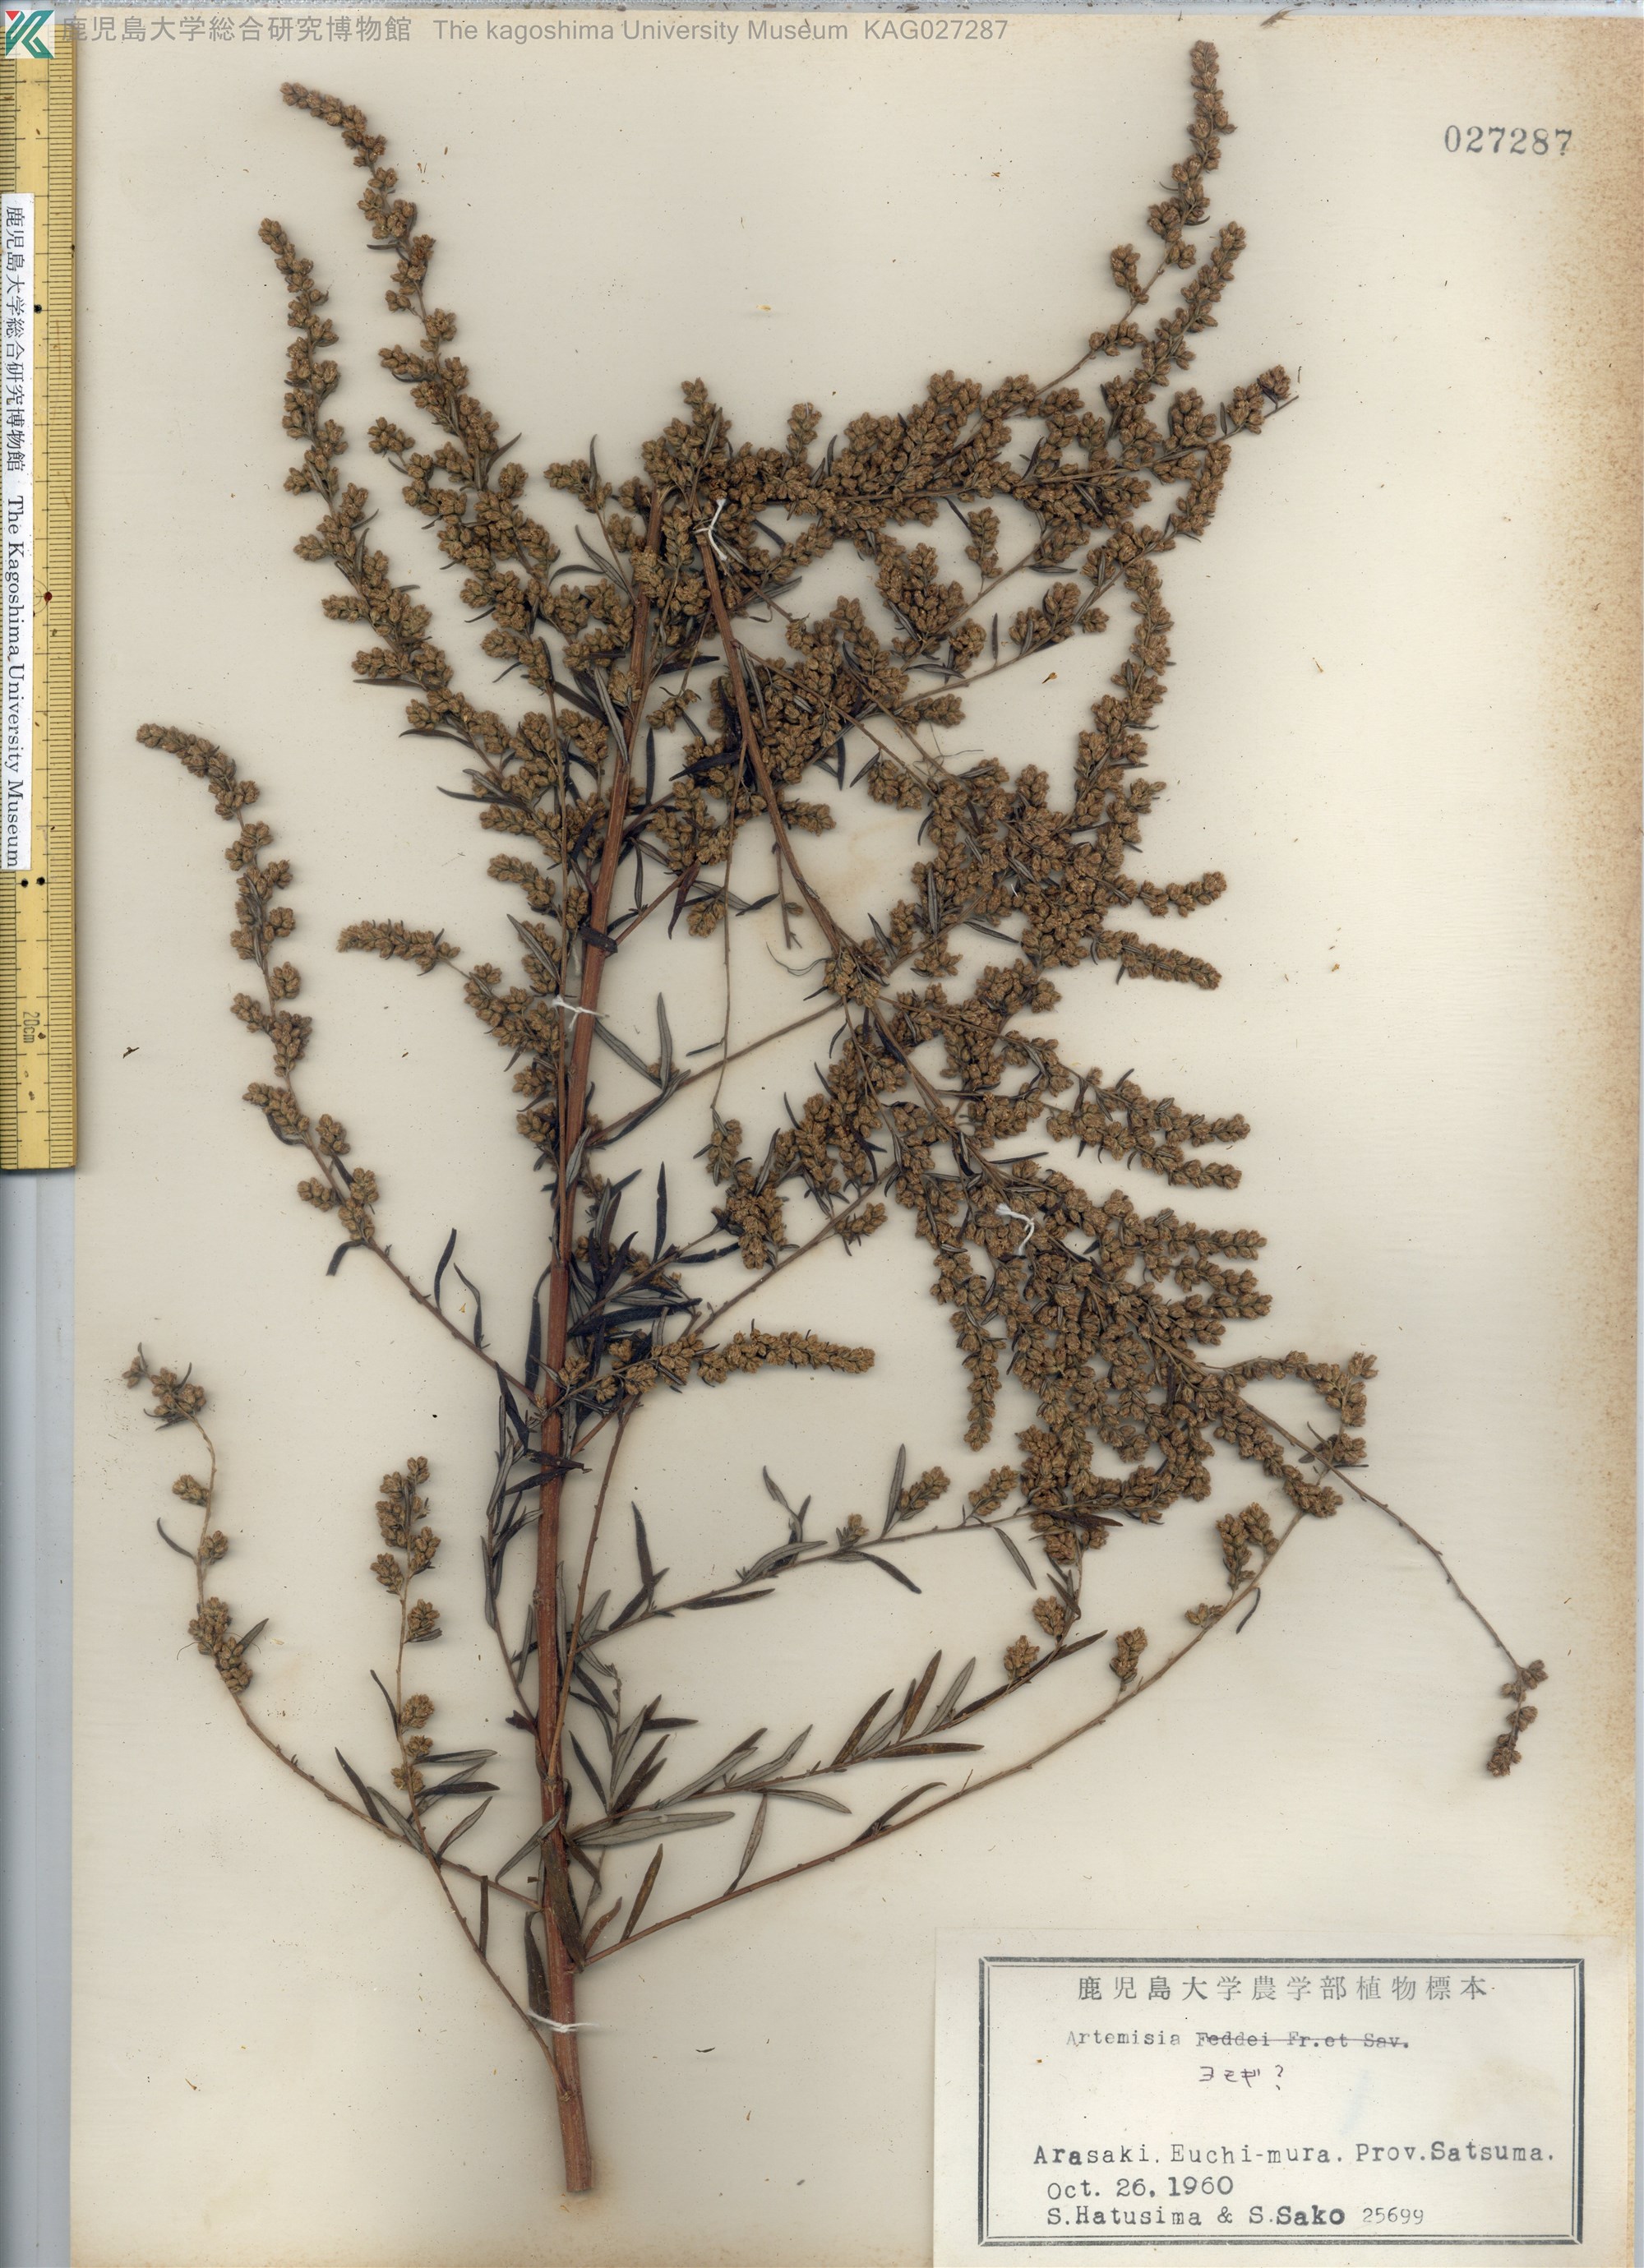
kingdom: Plantae
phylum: Tracheophyta
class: Magnoliopsida
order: Asterales
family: Asteraceae
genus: Artemisia
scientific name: Artemisia princeps
